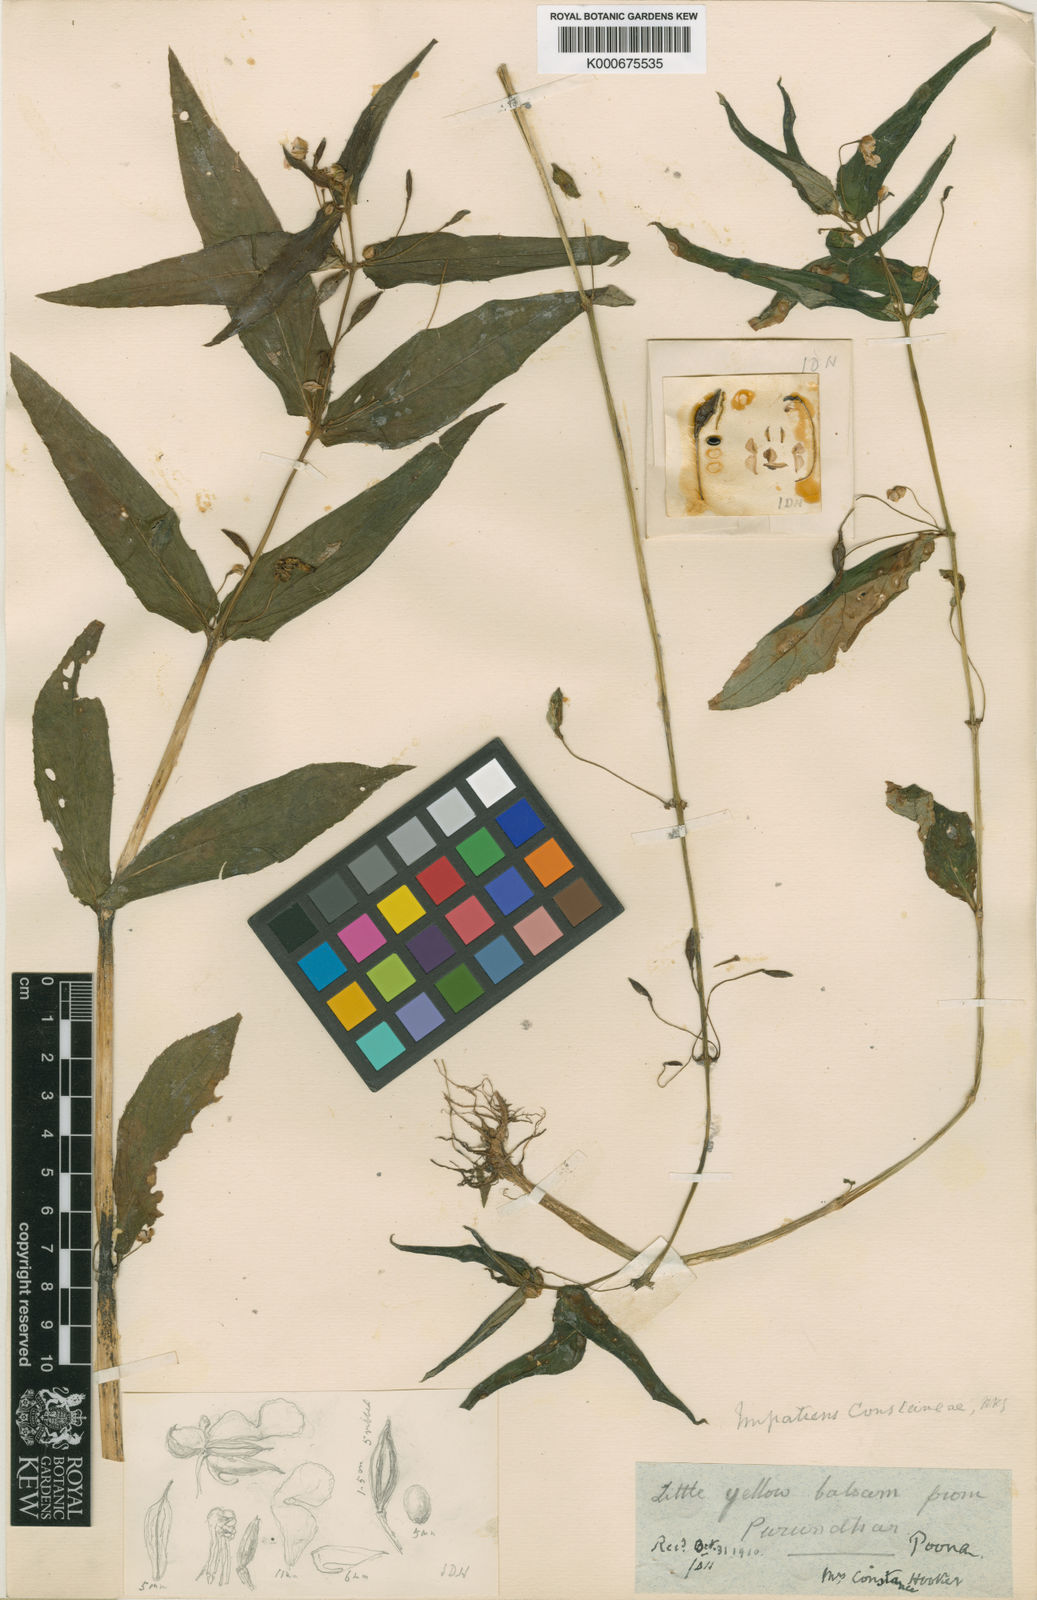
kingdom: Plantae
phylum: Tracheophyta
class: Magnoliopsida
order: Ericales
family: Balsaminaceae
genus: Impatiens
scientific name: Impatiens
